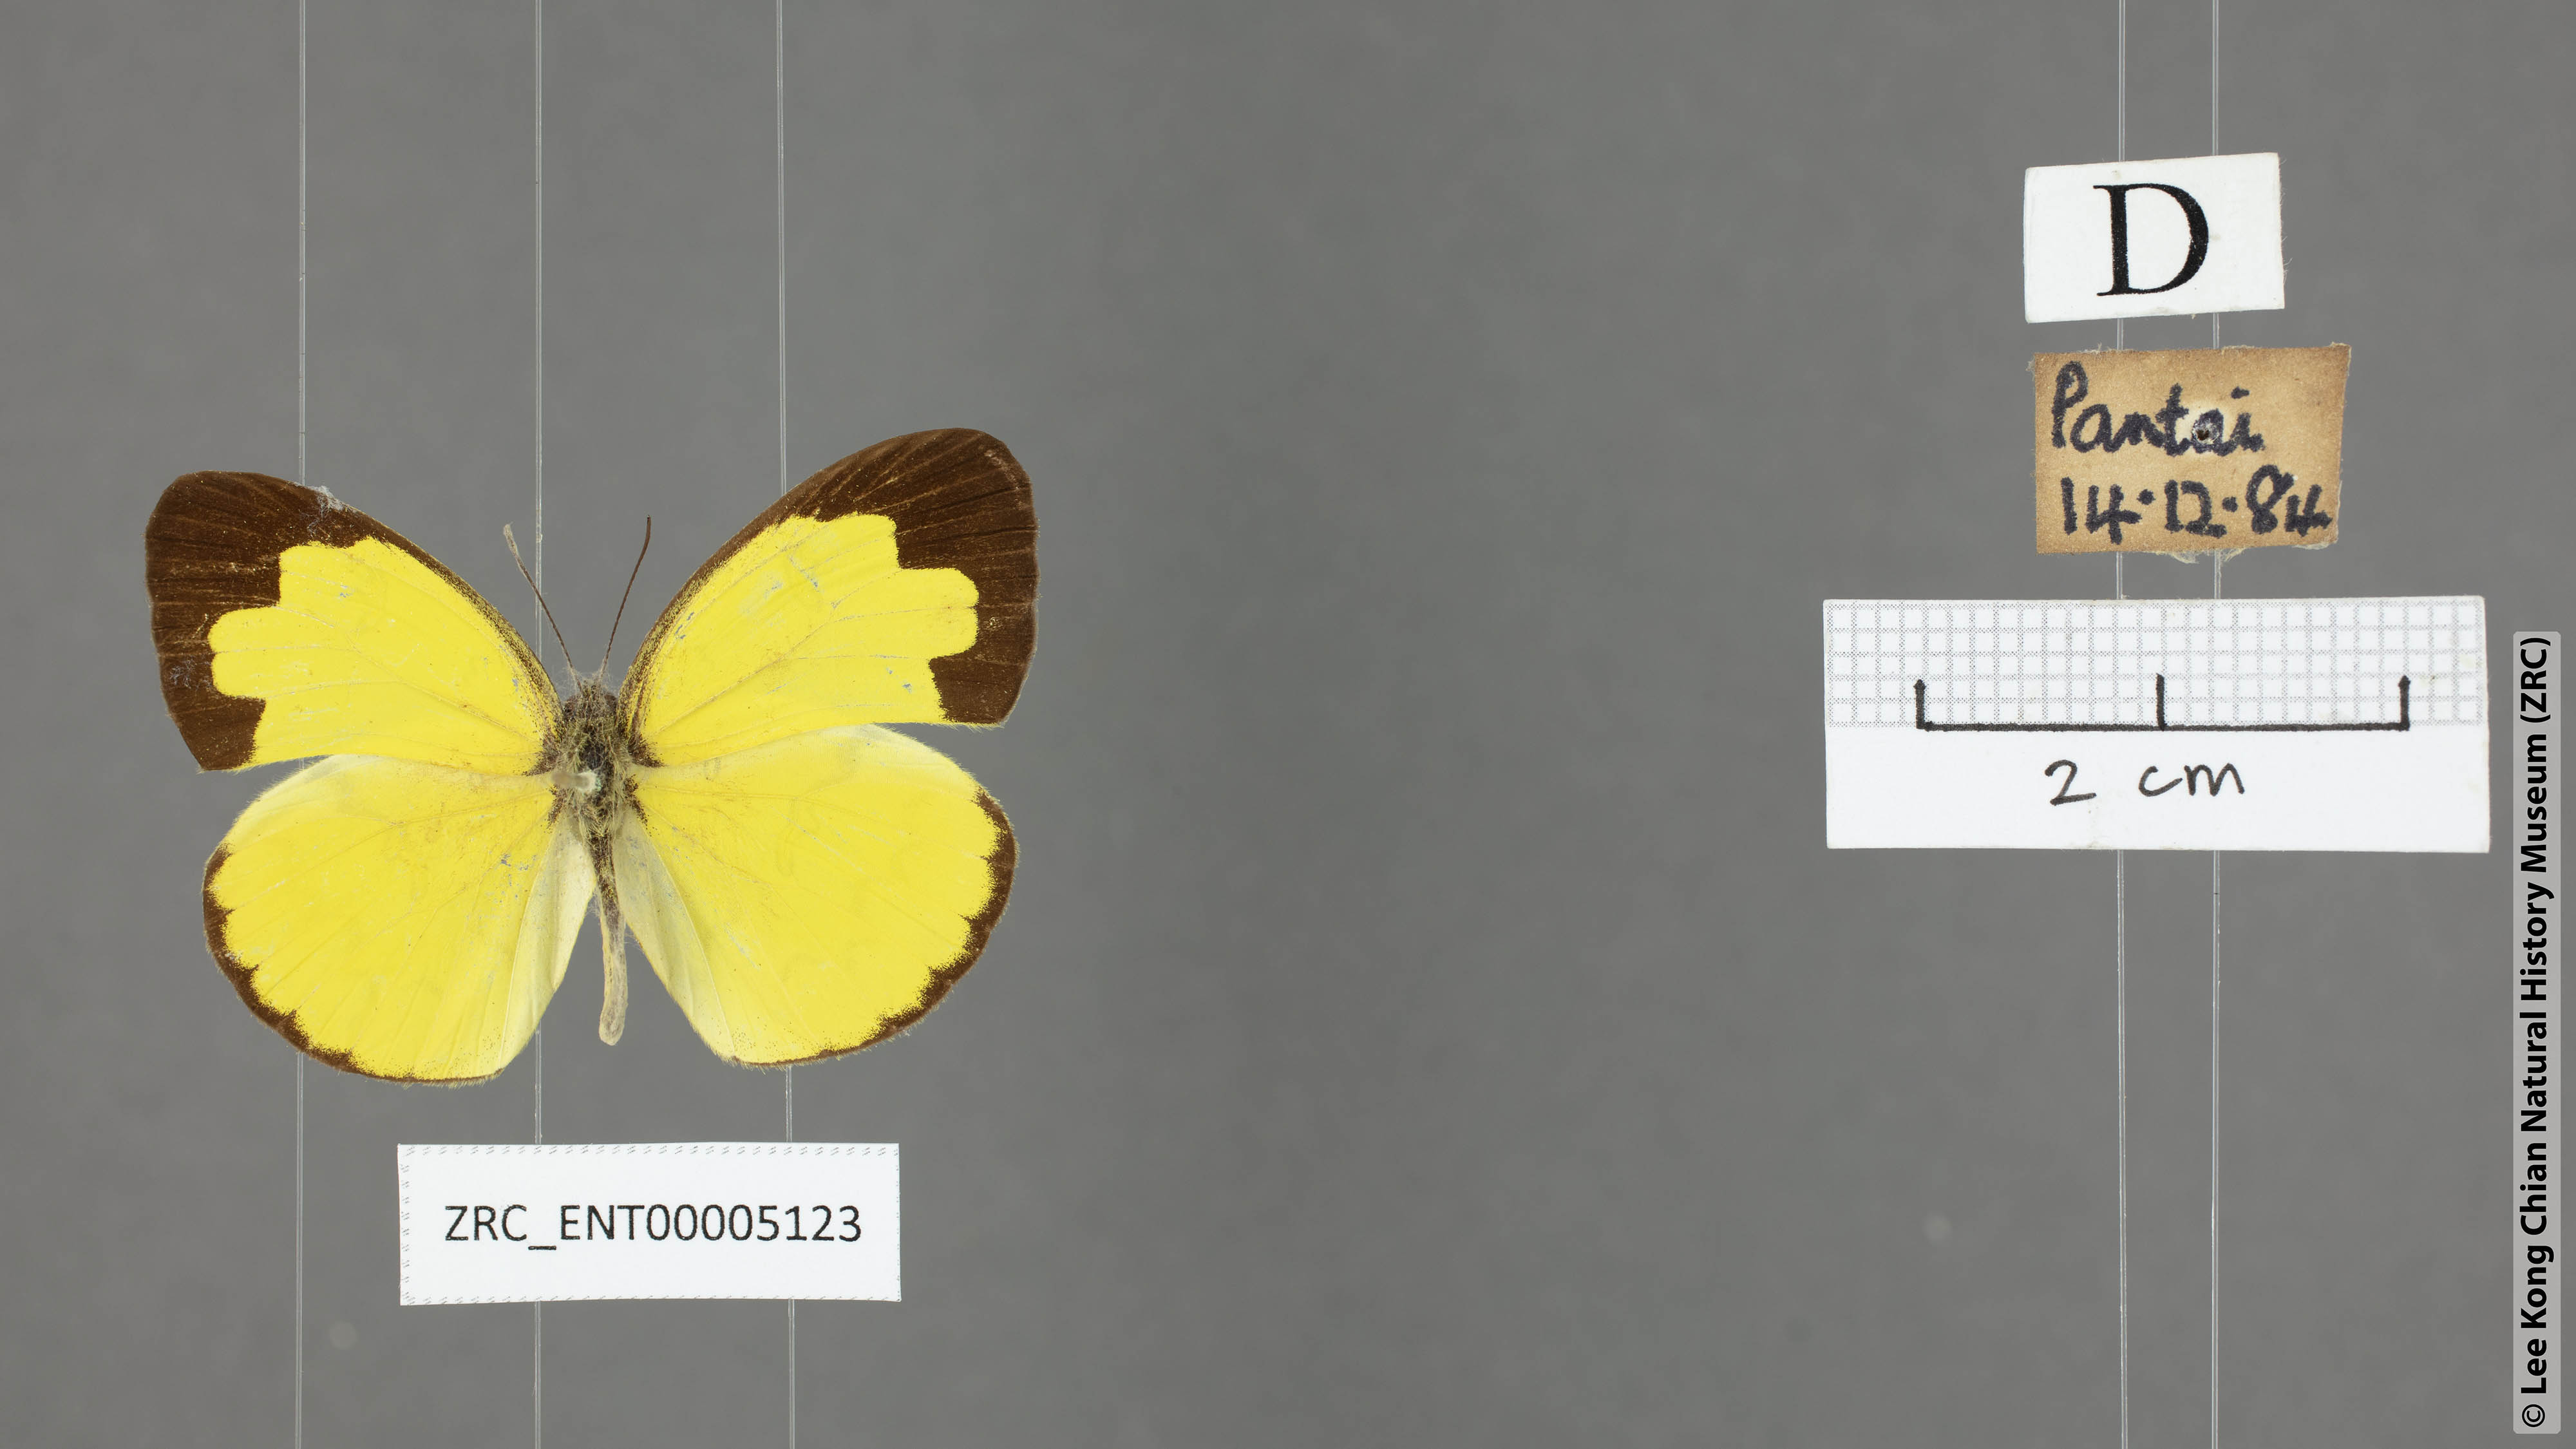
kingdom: Animalia
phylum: Arthropoda
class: Insecta
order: Lepidoptera
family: Pieridae
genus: Eurema
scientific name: Eurema andersoni
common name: One-spot yellow grass
